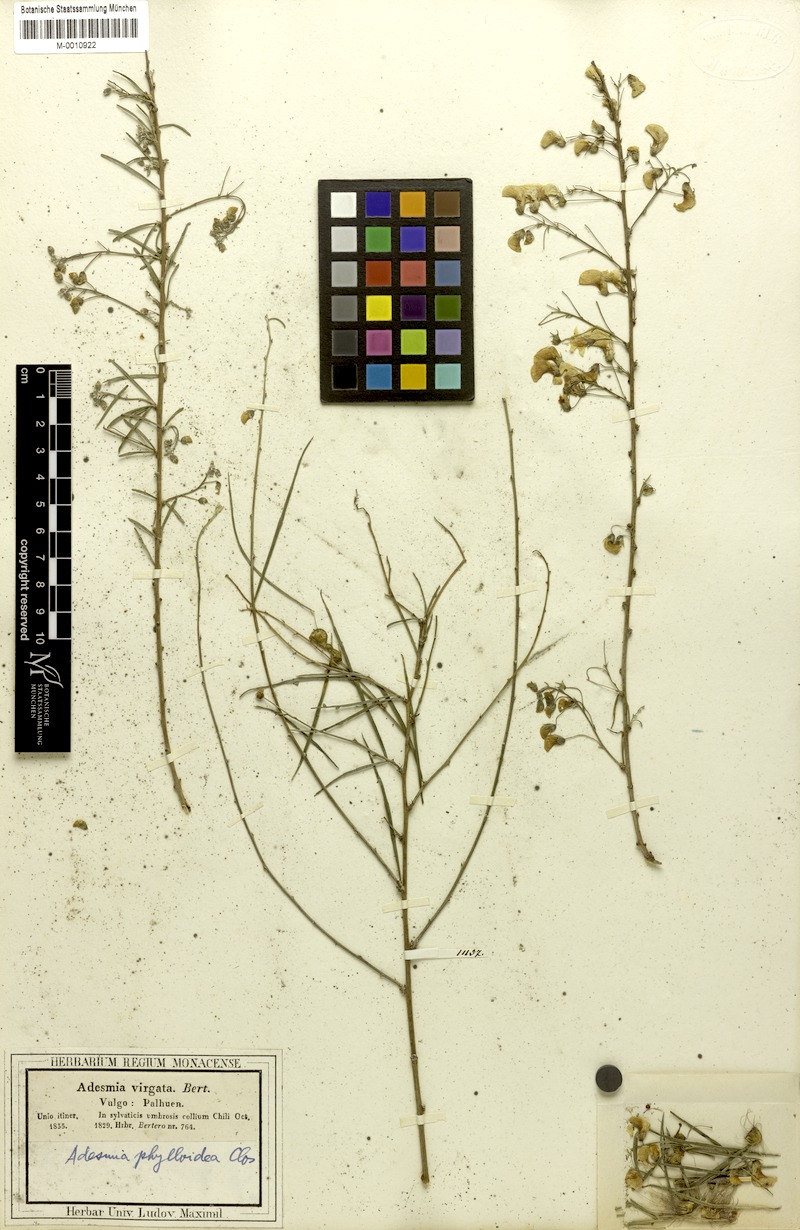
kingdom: Plantae
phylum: Tracheophyta
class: Magnoliopsida
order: Fabales
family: Fabaceae
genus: Adesmia
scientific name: Adesmia phylloidea
